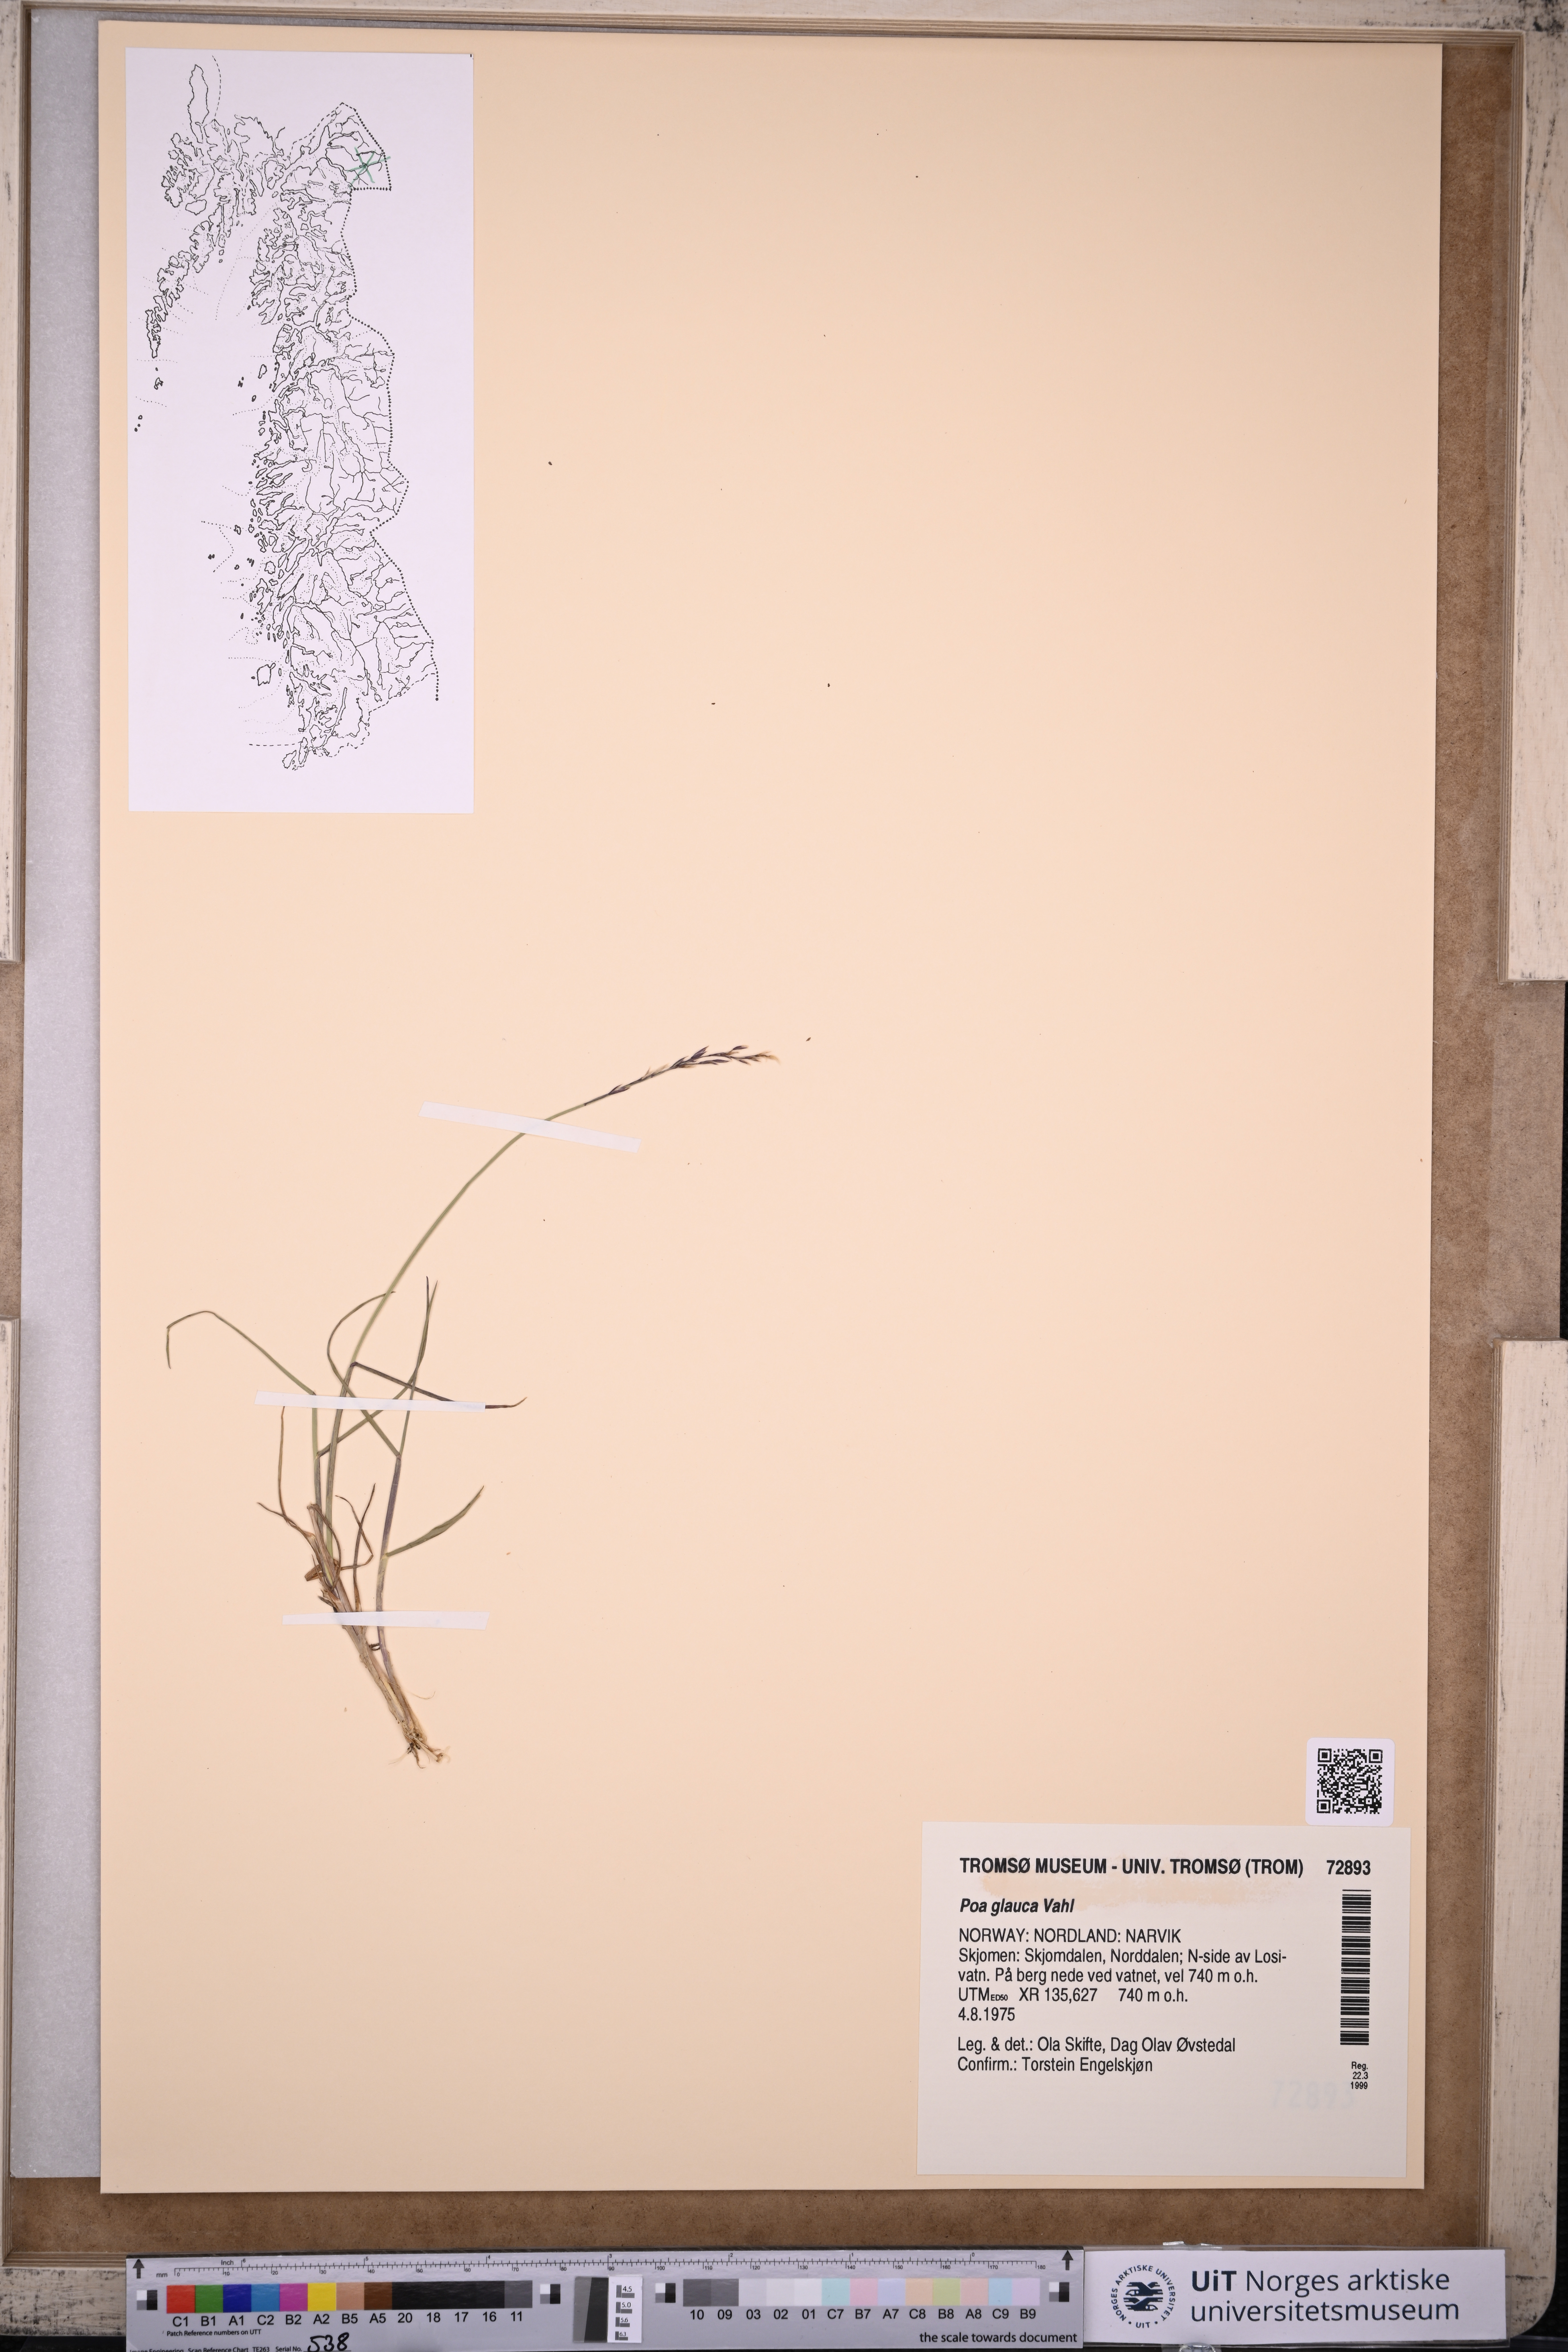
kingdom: Plantae
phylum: Tracheophyta
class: Liliopsida
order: Poales
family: Poaceae
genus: Poa
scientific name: Poa glauca
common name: Glaucous bluegrass
